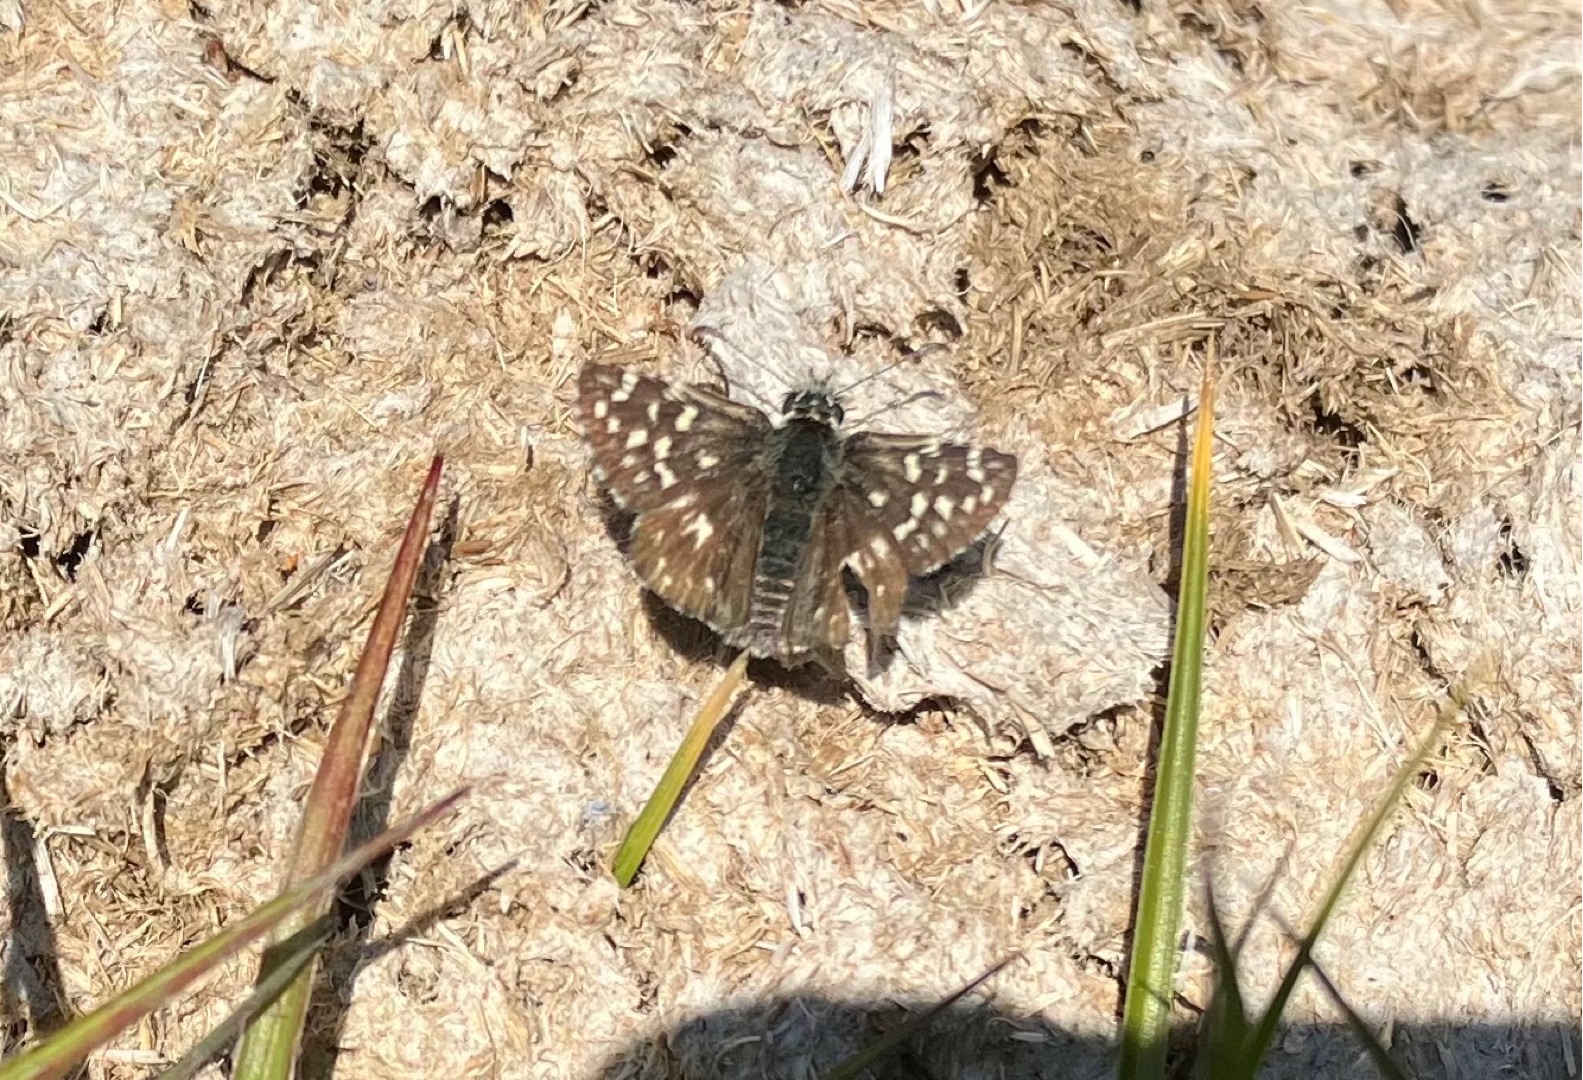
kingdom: Animalia
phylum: Arthropoda
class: Insecta
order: Lepidoptera
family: Hesperiidae
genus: Pyrgus
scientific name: Pyrgus malvae
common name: Spættet bredpande
